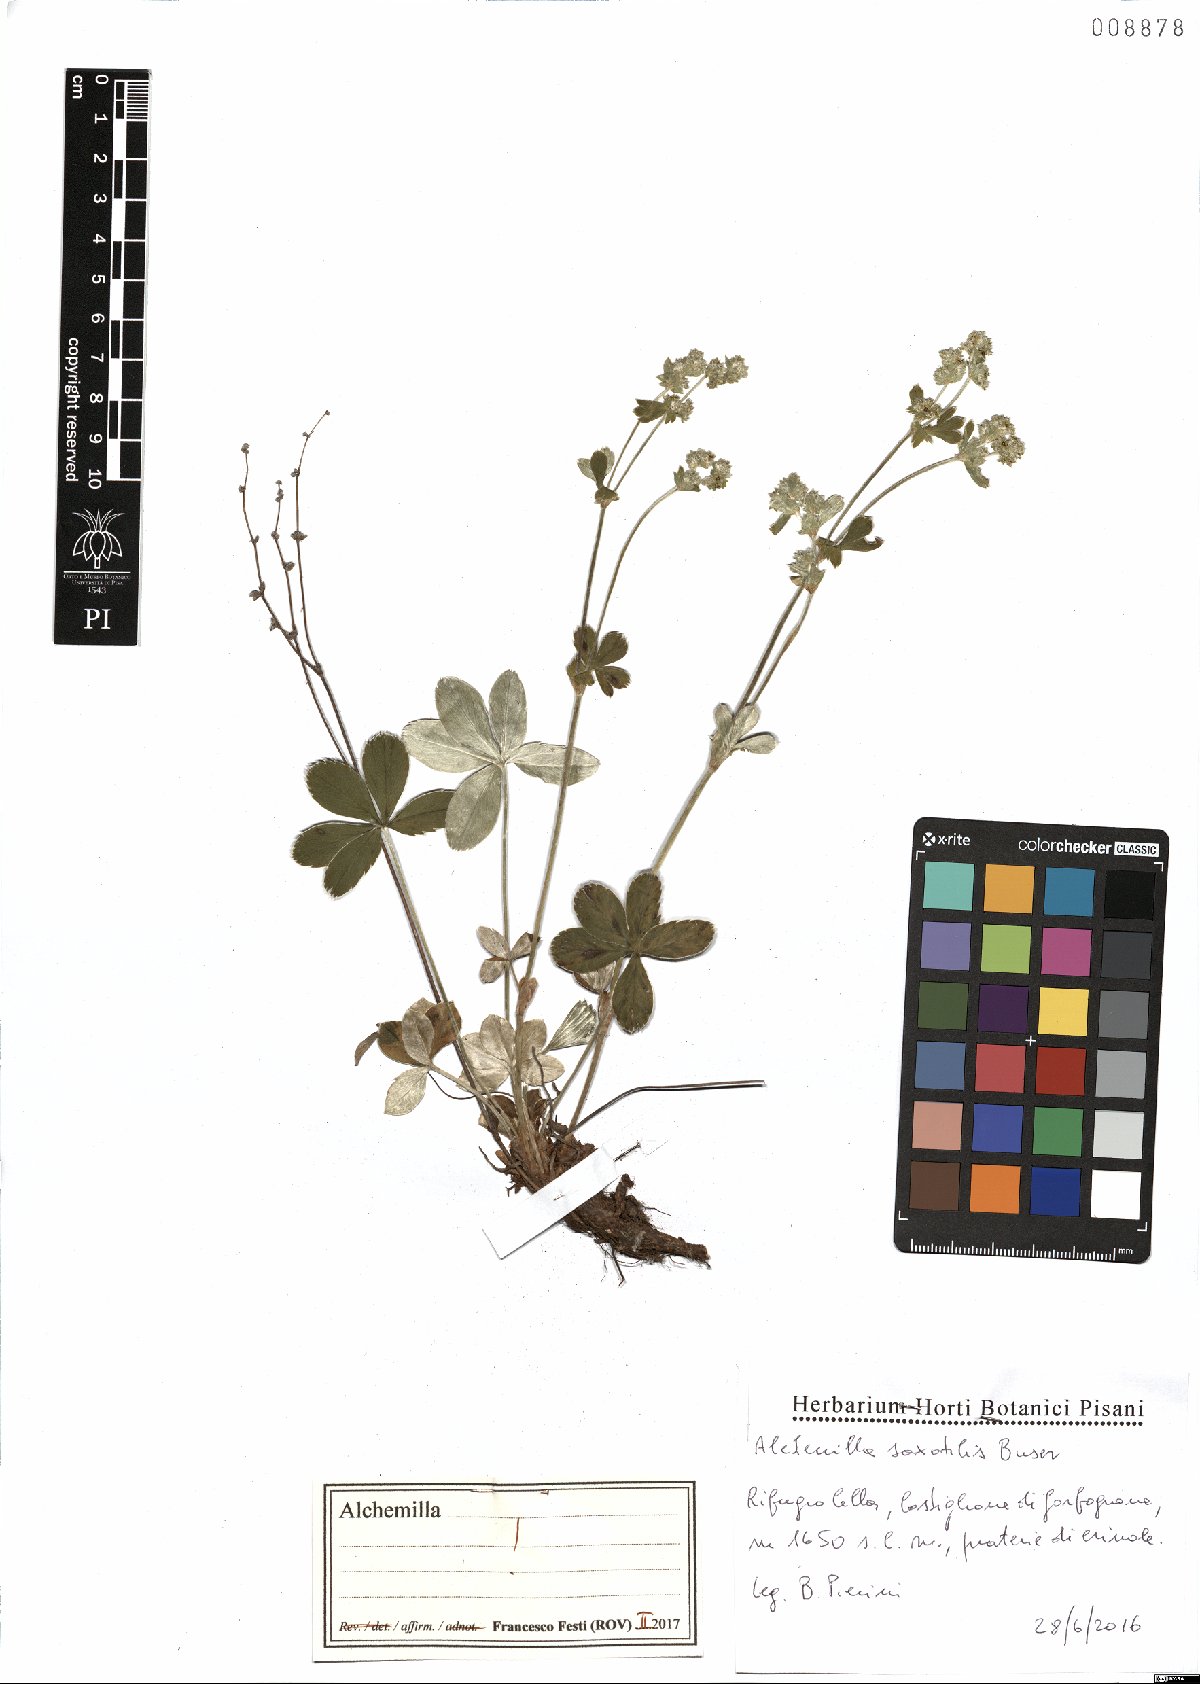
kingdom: Plantae
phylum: Tracheophyta
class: Magnoliopsida
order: Rosales
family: Rosaceae
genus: Alchemilla
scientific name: Alchemilla saxatilis
